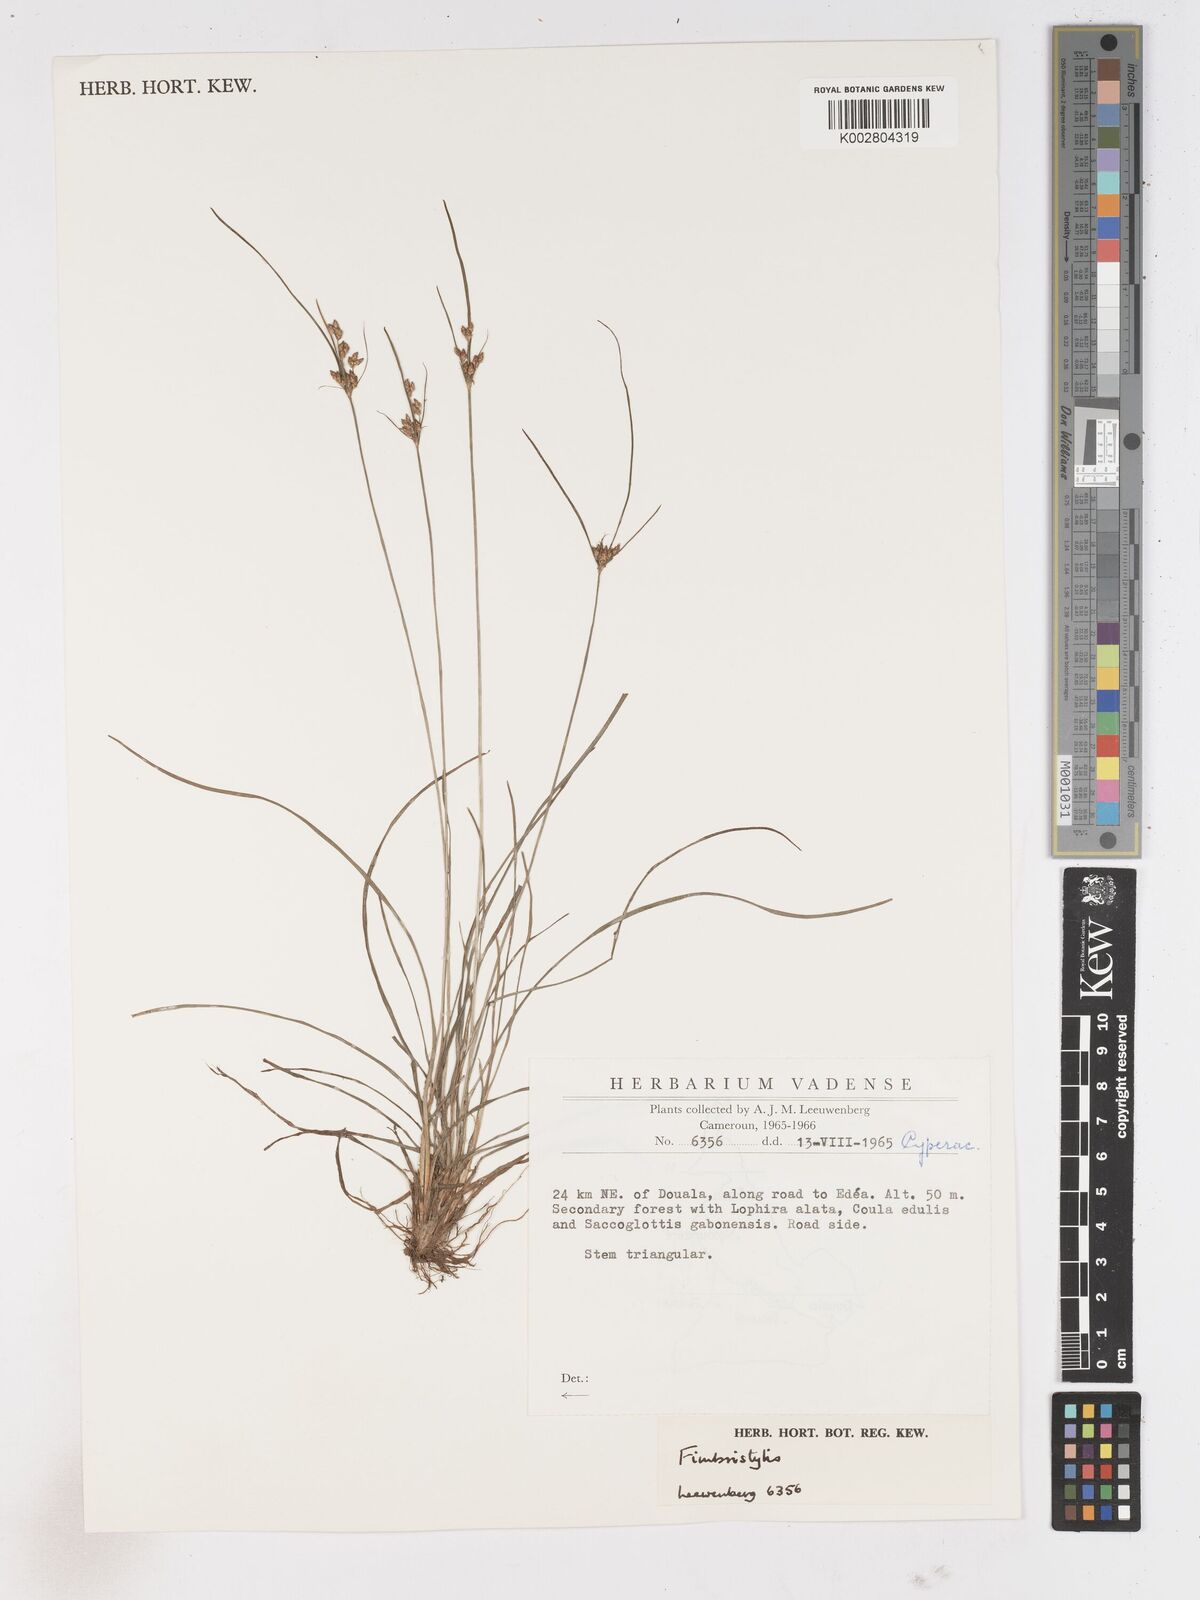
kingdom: Plantae
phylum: Tracheophyta
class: Liliopsida
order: Poales
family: Cyperaceae
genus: Fimbristylis
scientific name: Fimbristylis
